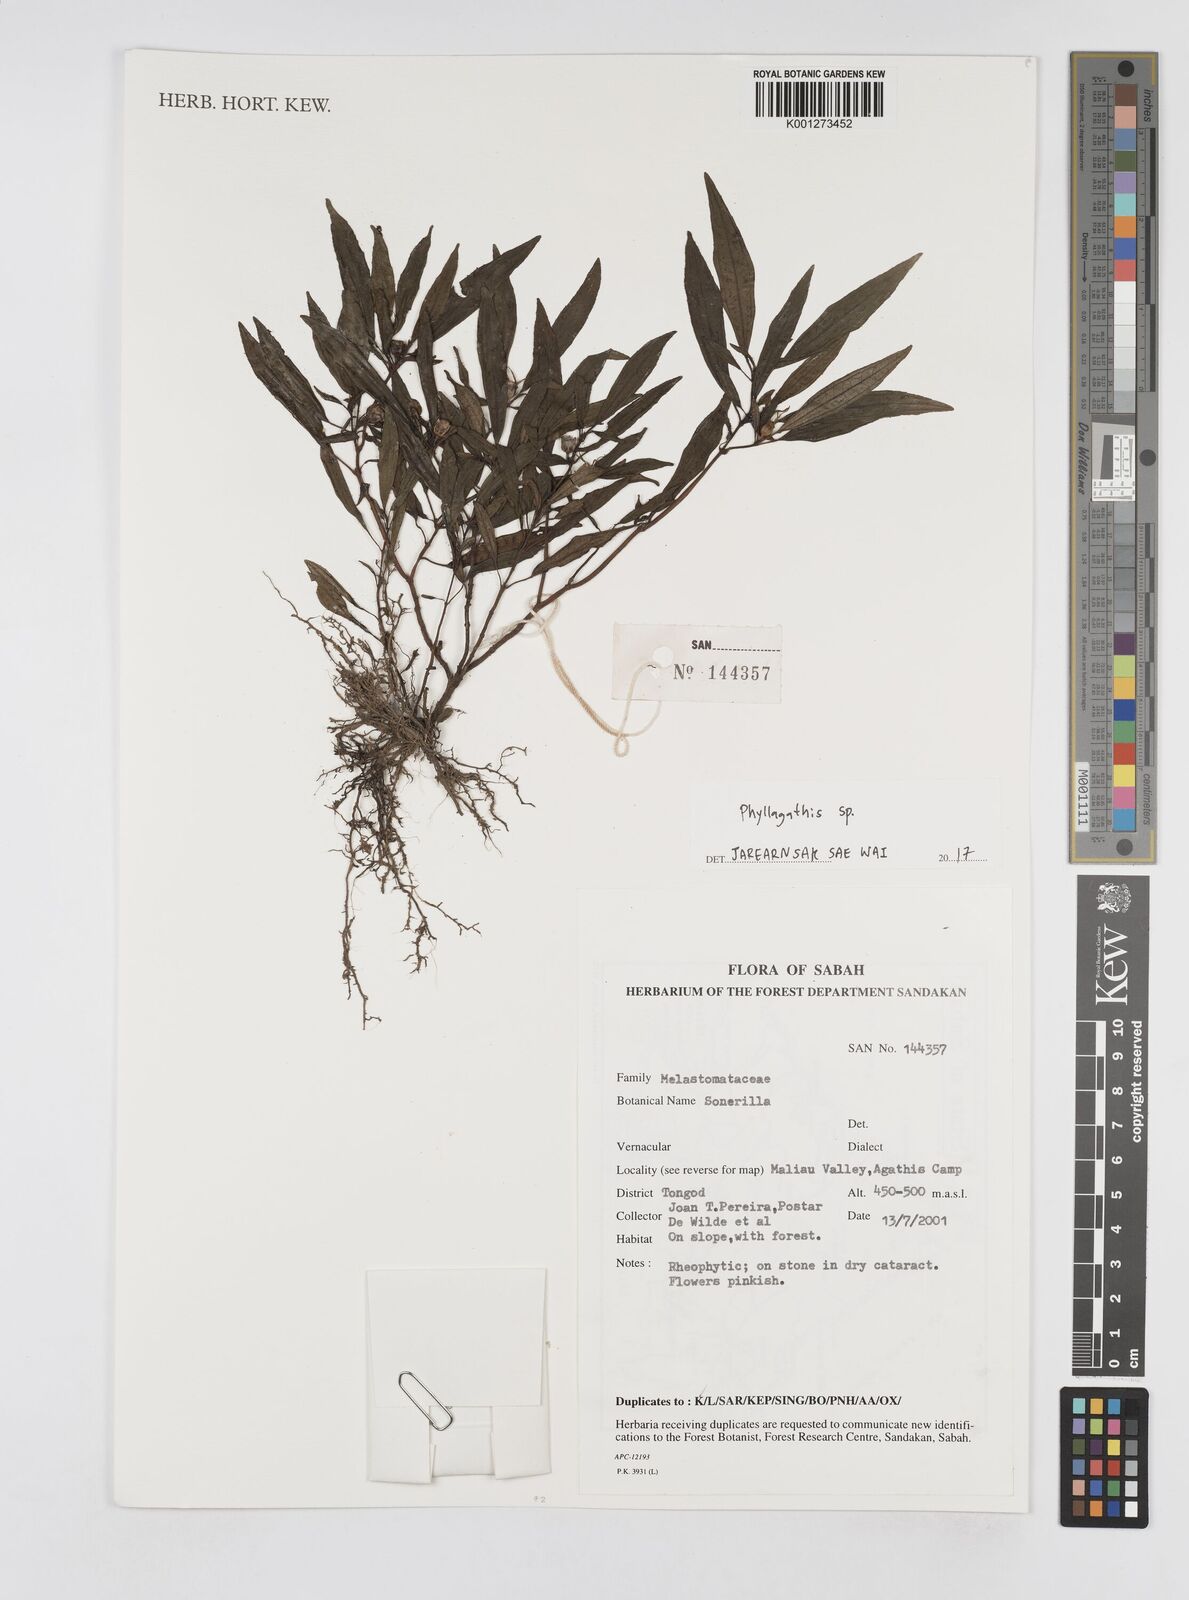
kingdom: Plantae
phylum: Tracheophyta
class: Magnoliopsida
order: Myrtales
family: Melastomataceae
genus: Phyllagathis
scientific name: Phyllagathis
